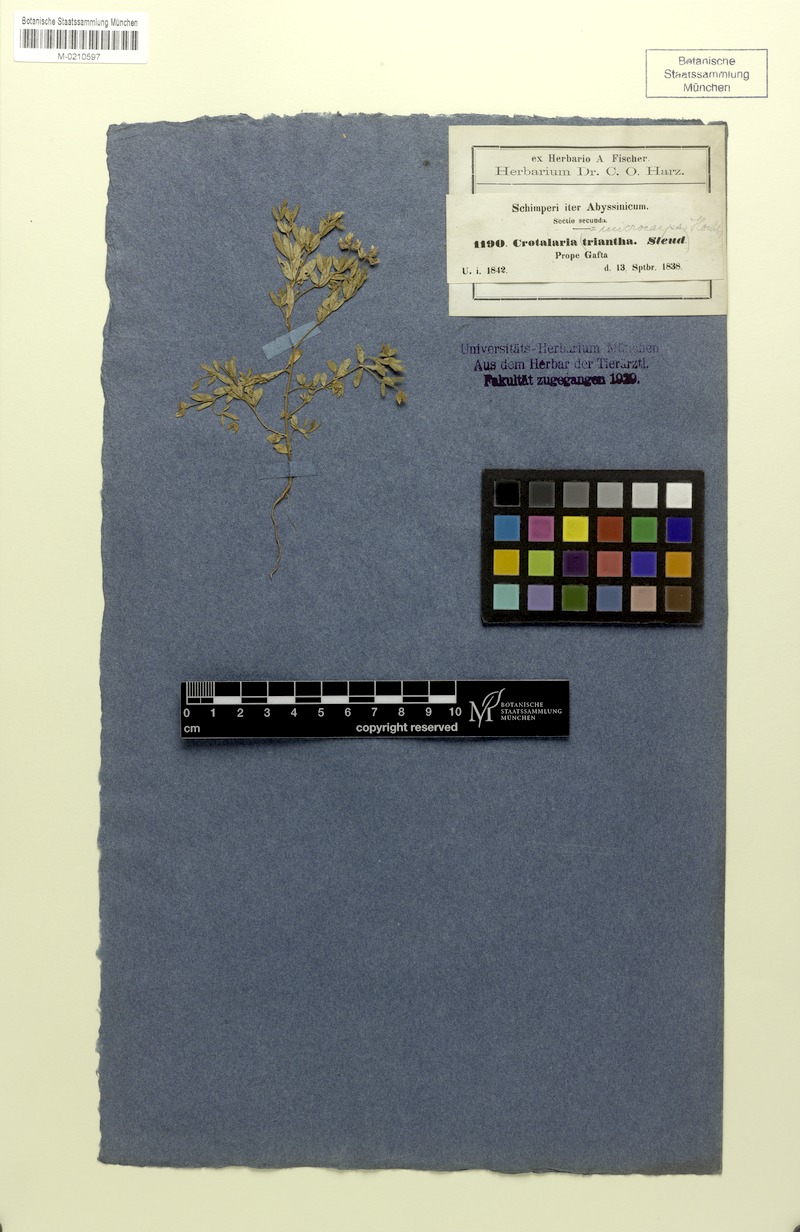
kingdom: Plantae
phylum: Tracheophyta
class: Magnoliopsida
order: Fabales
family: Fabaceae
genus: Crotalaria
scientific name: Crotalaria microcarpa
